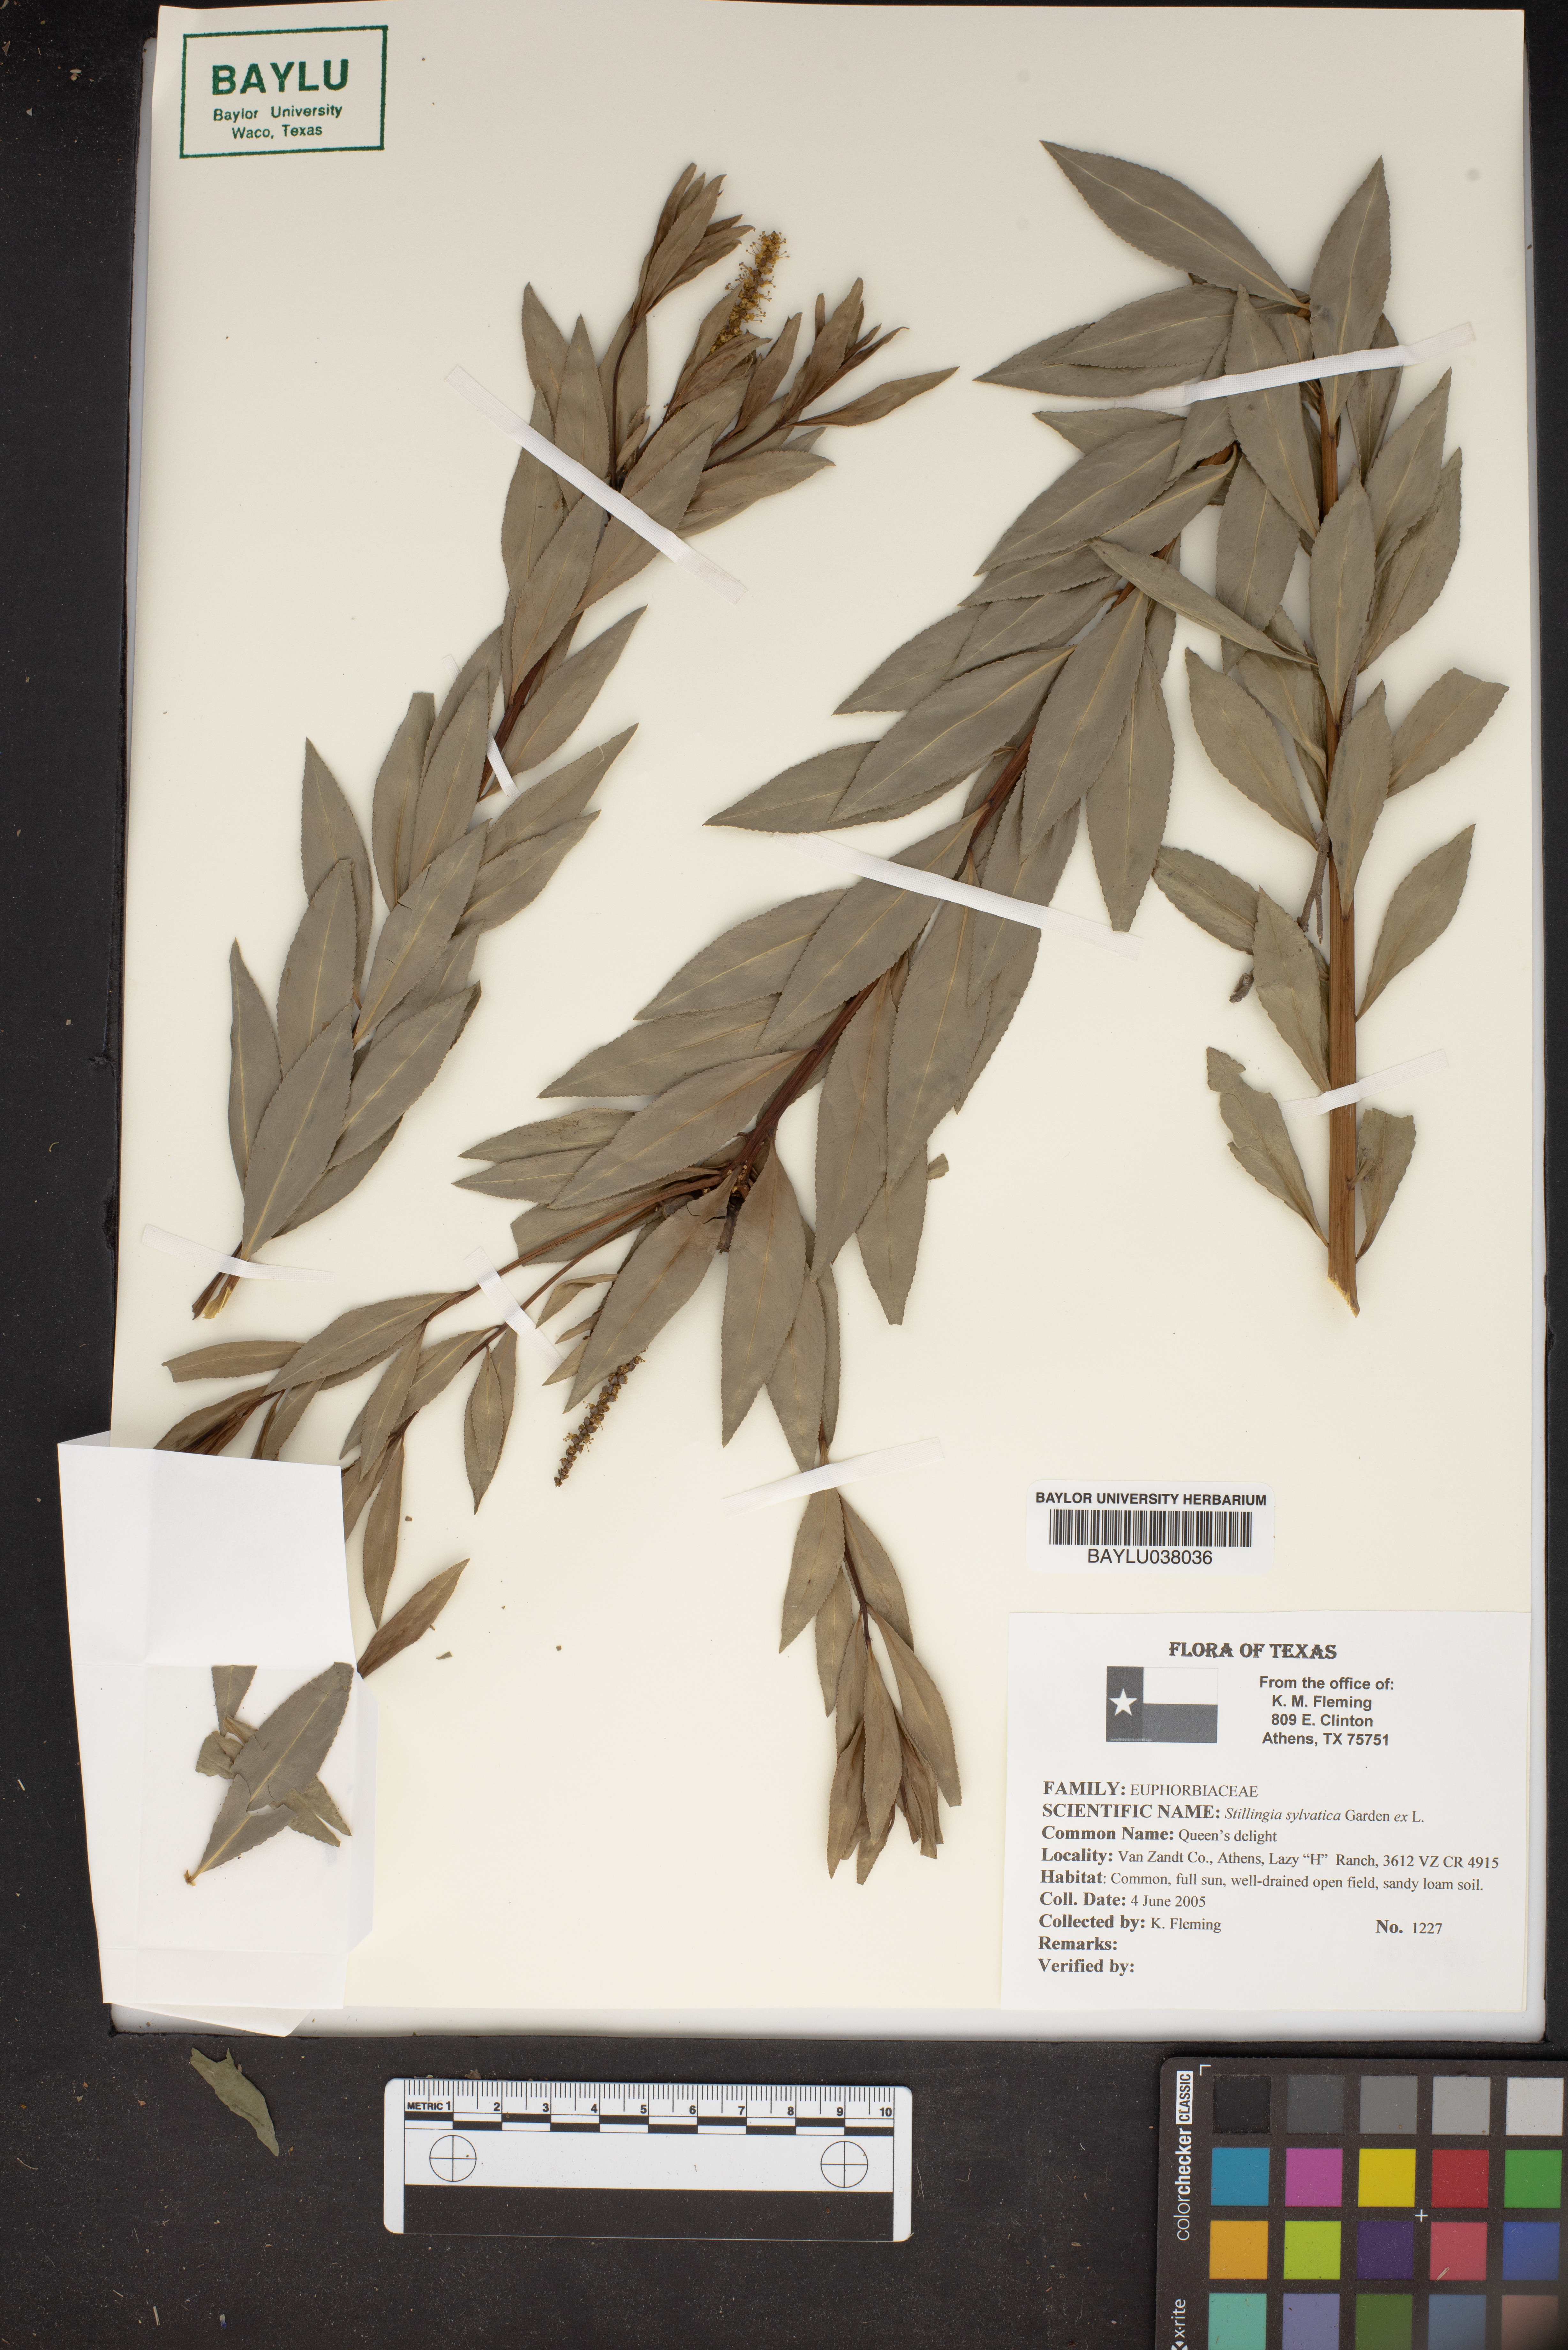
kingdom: Plantae
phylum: Tracheophyta
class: Magnoliopsida
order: Malpighiales
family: Euphorbiaceae
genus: Stillingia
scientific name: Stillingia sylvatica
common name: Queen's-delight
